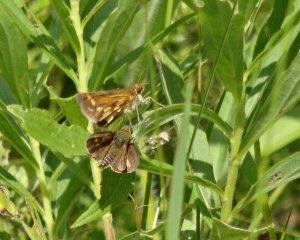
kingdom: Animalia
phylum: Arthropoda
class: Insecta
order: Lepidoptera
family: Hesperiidae
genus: Polites
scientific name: Polites coras
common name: Peck's Skipper
